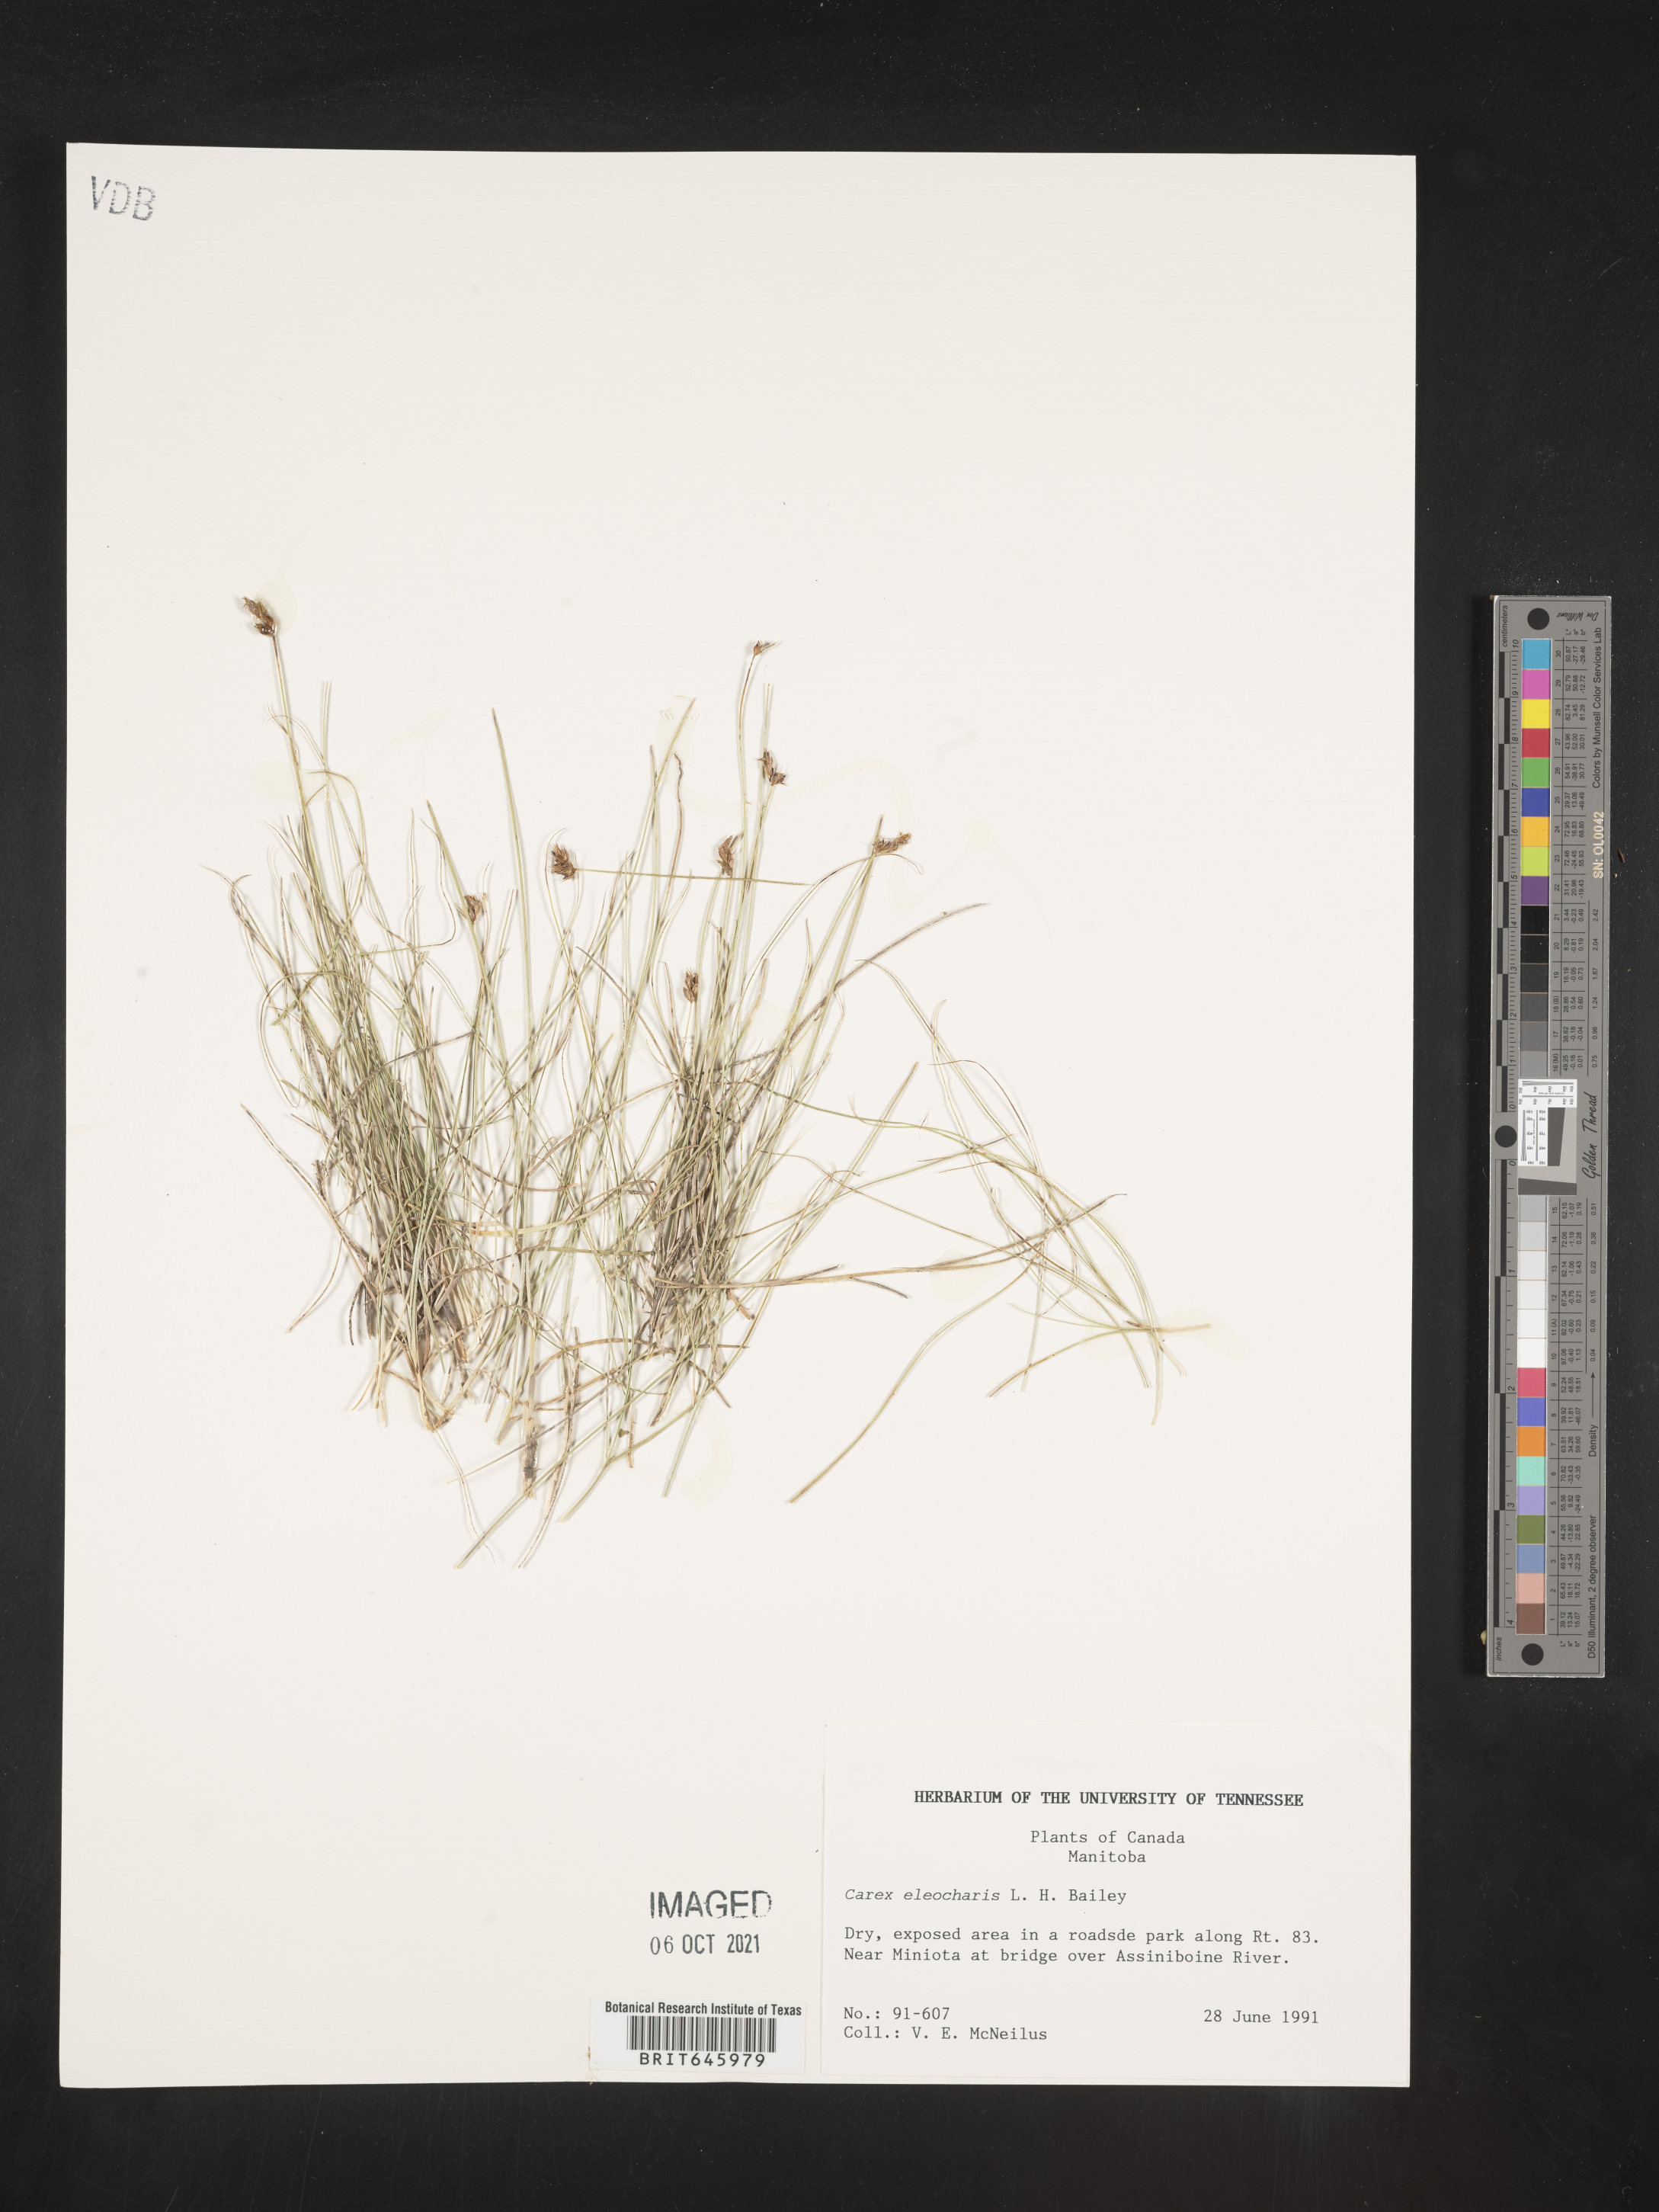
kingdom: Plantae
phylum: Tracheophyta
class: Liliopsida
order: Poales
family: Cyperaceae
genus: Carex
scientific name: Carex duriuscula
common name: Involute-leaved sedge
